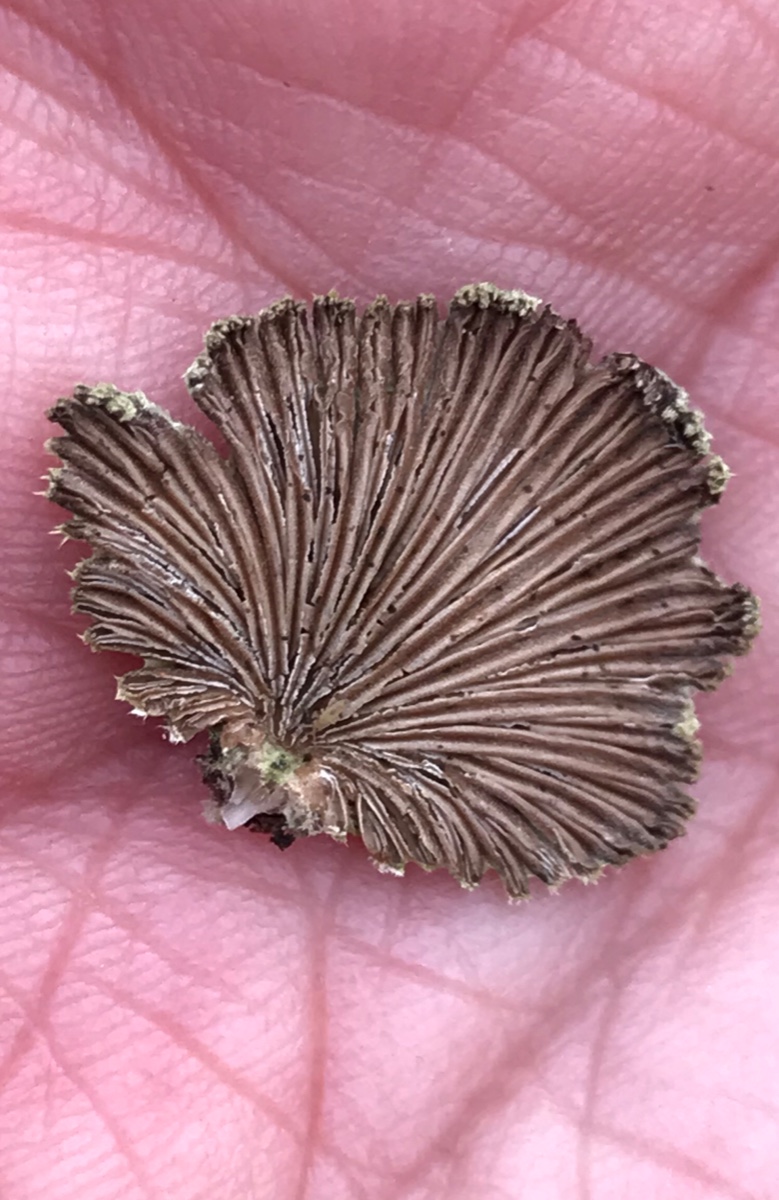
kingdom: Fungi
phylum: Basidiomycota
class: Agaricomycetes
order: Agaricales
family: Schizophyllaceae
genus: Schizophyllum
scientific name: Schizophyllum commune
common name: kløvblad
